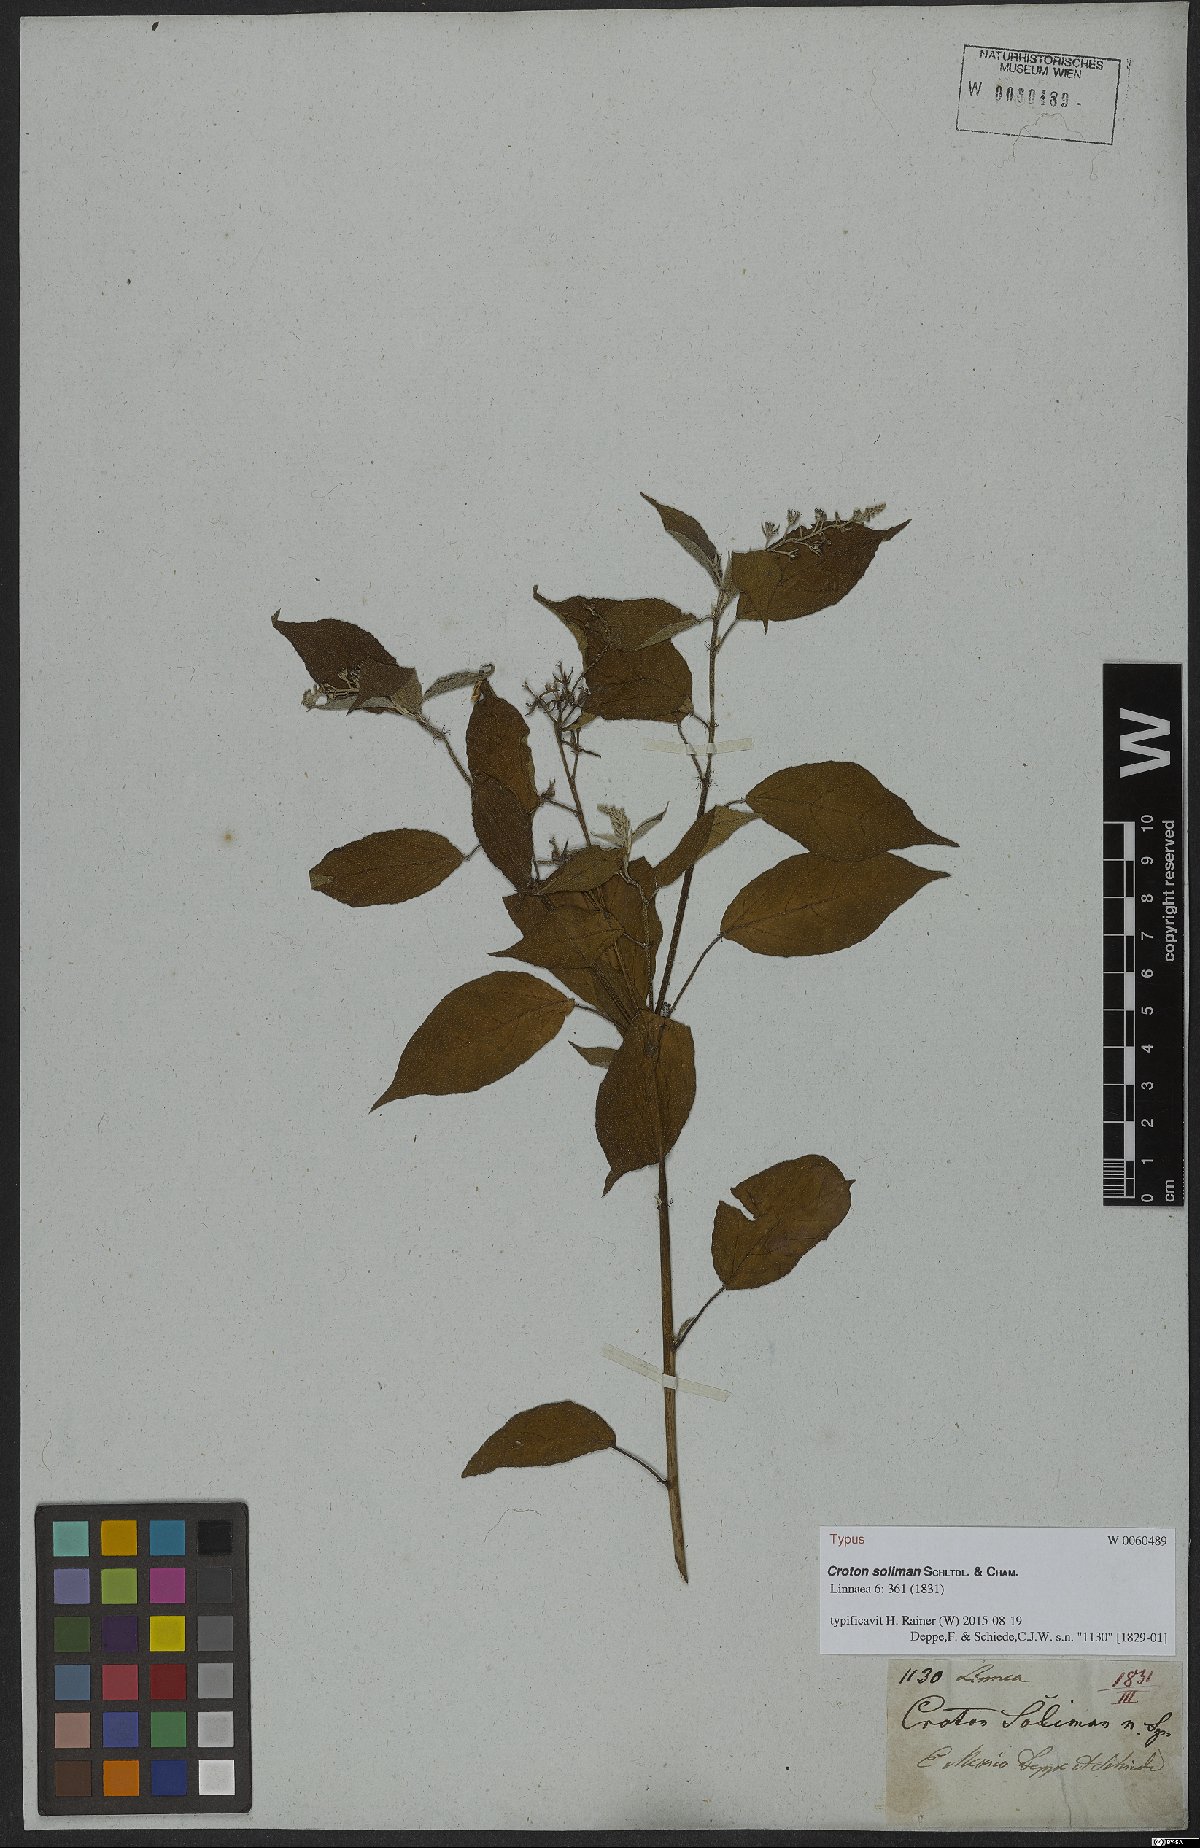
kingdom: Plantae
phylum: Tracheophyta
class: Magnoliopsida
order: Malpighiales
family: Euphorbiaceae
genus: Croton
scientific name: Croton soliman
